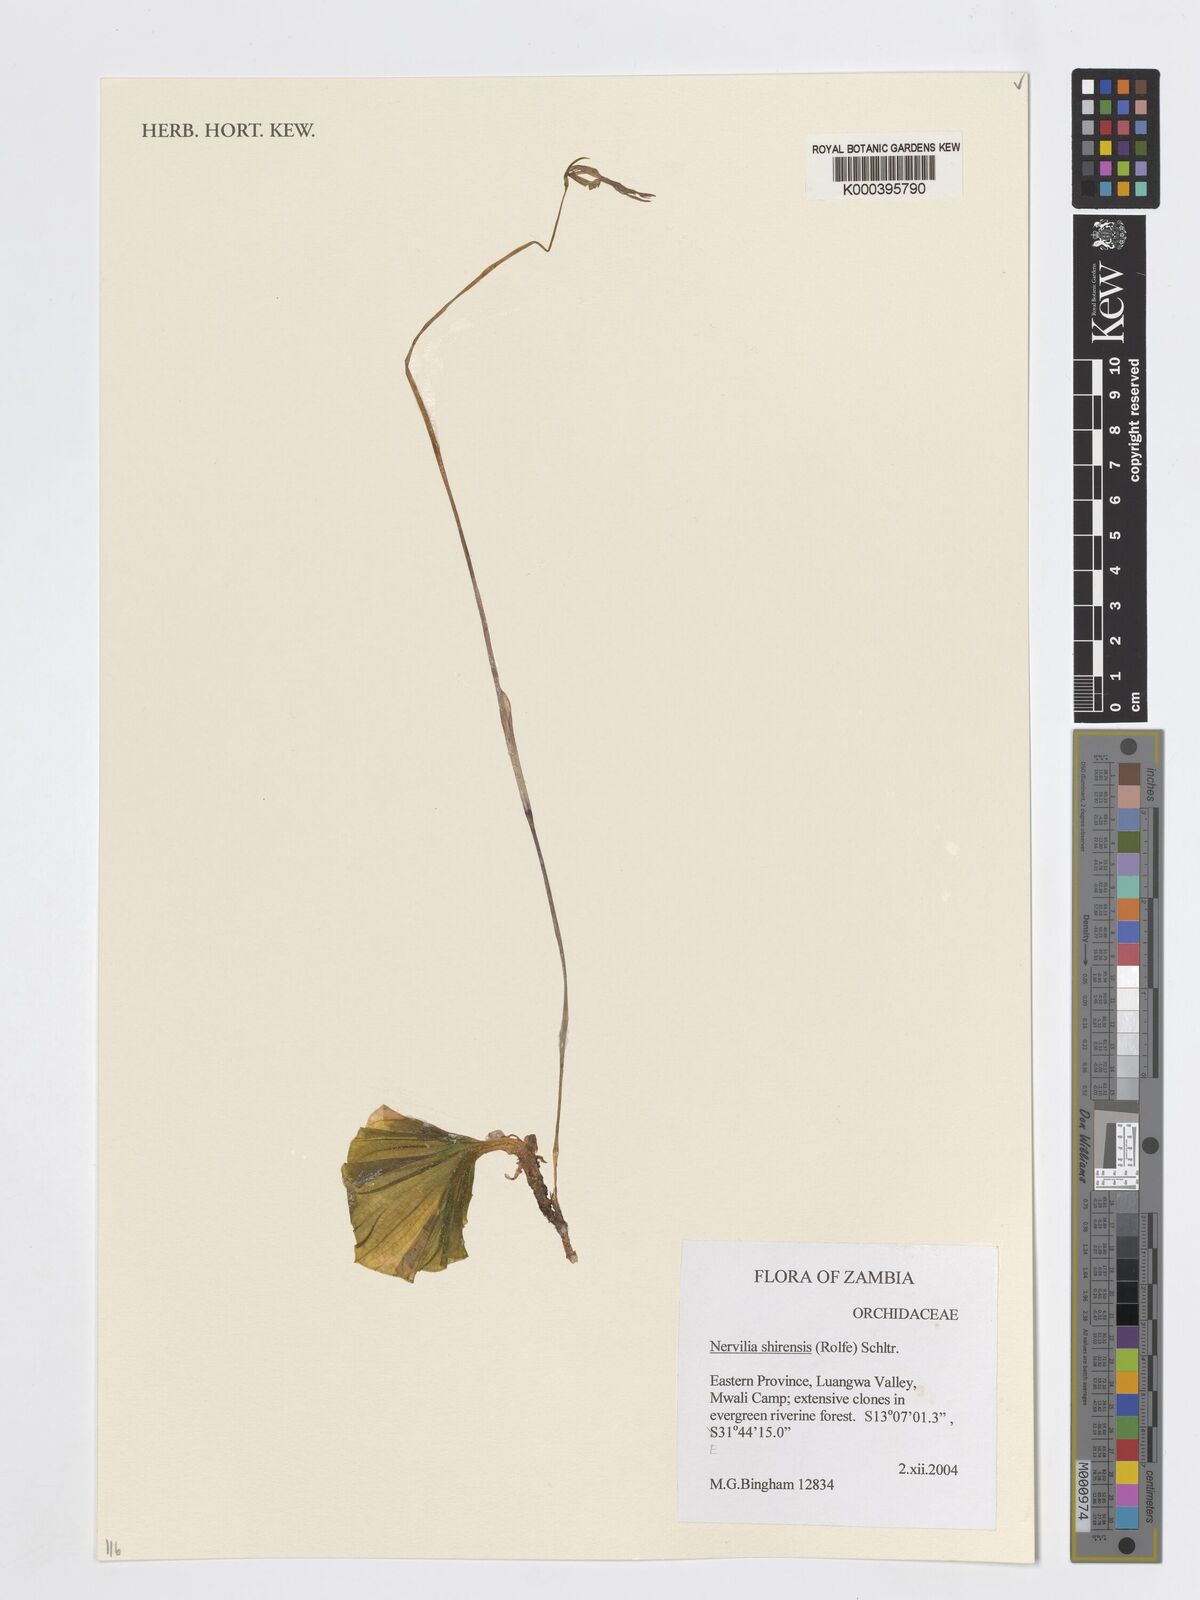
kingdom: Plantae
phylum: Tracheophyta
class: Liliopsida
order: Asparagales
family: Orchidaceae
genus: Nervilia
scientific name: Nervilia shirensis
